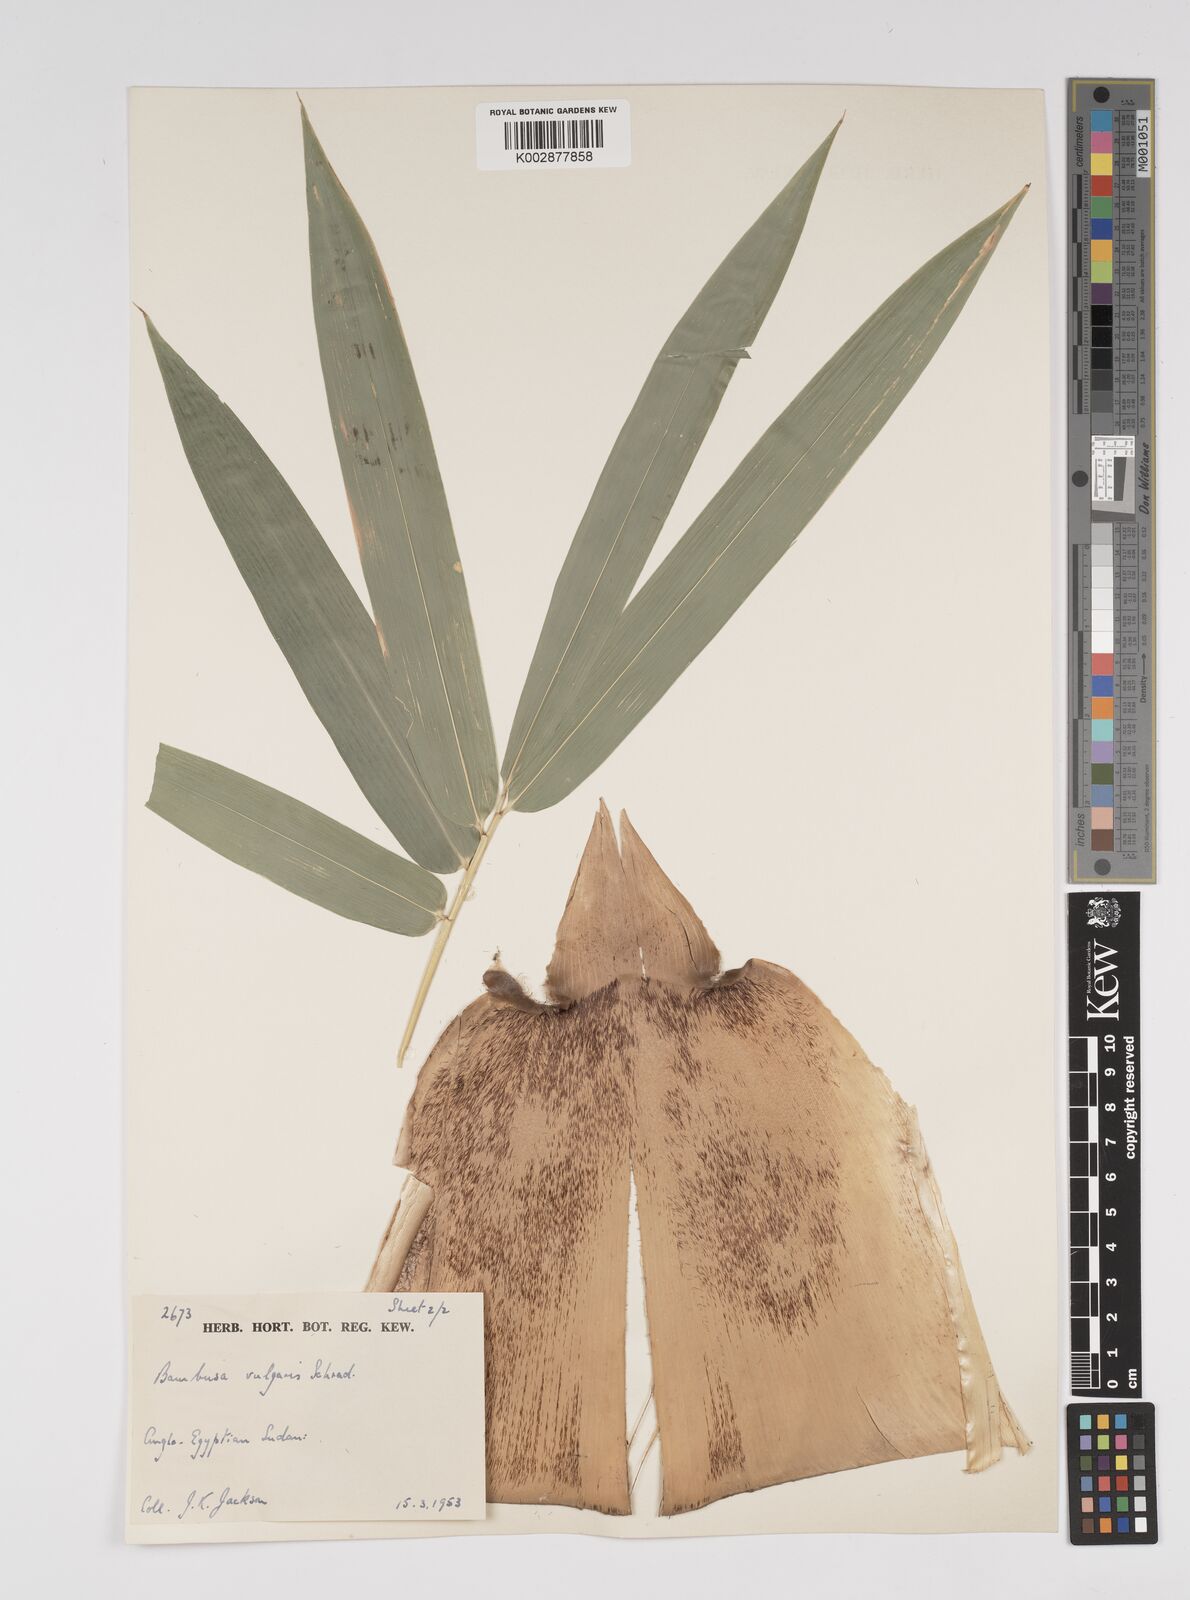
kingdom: Plantae
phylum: Tracheophyta
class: Liliopsida
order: Poales
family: Poaceae
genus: Bambusa
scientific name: Bambusa vulgaris
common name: Common bamboo
